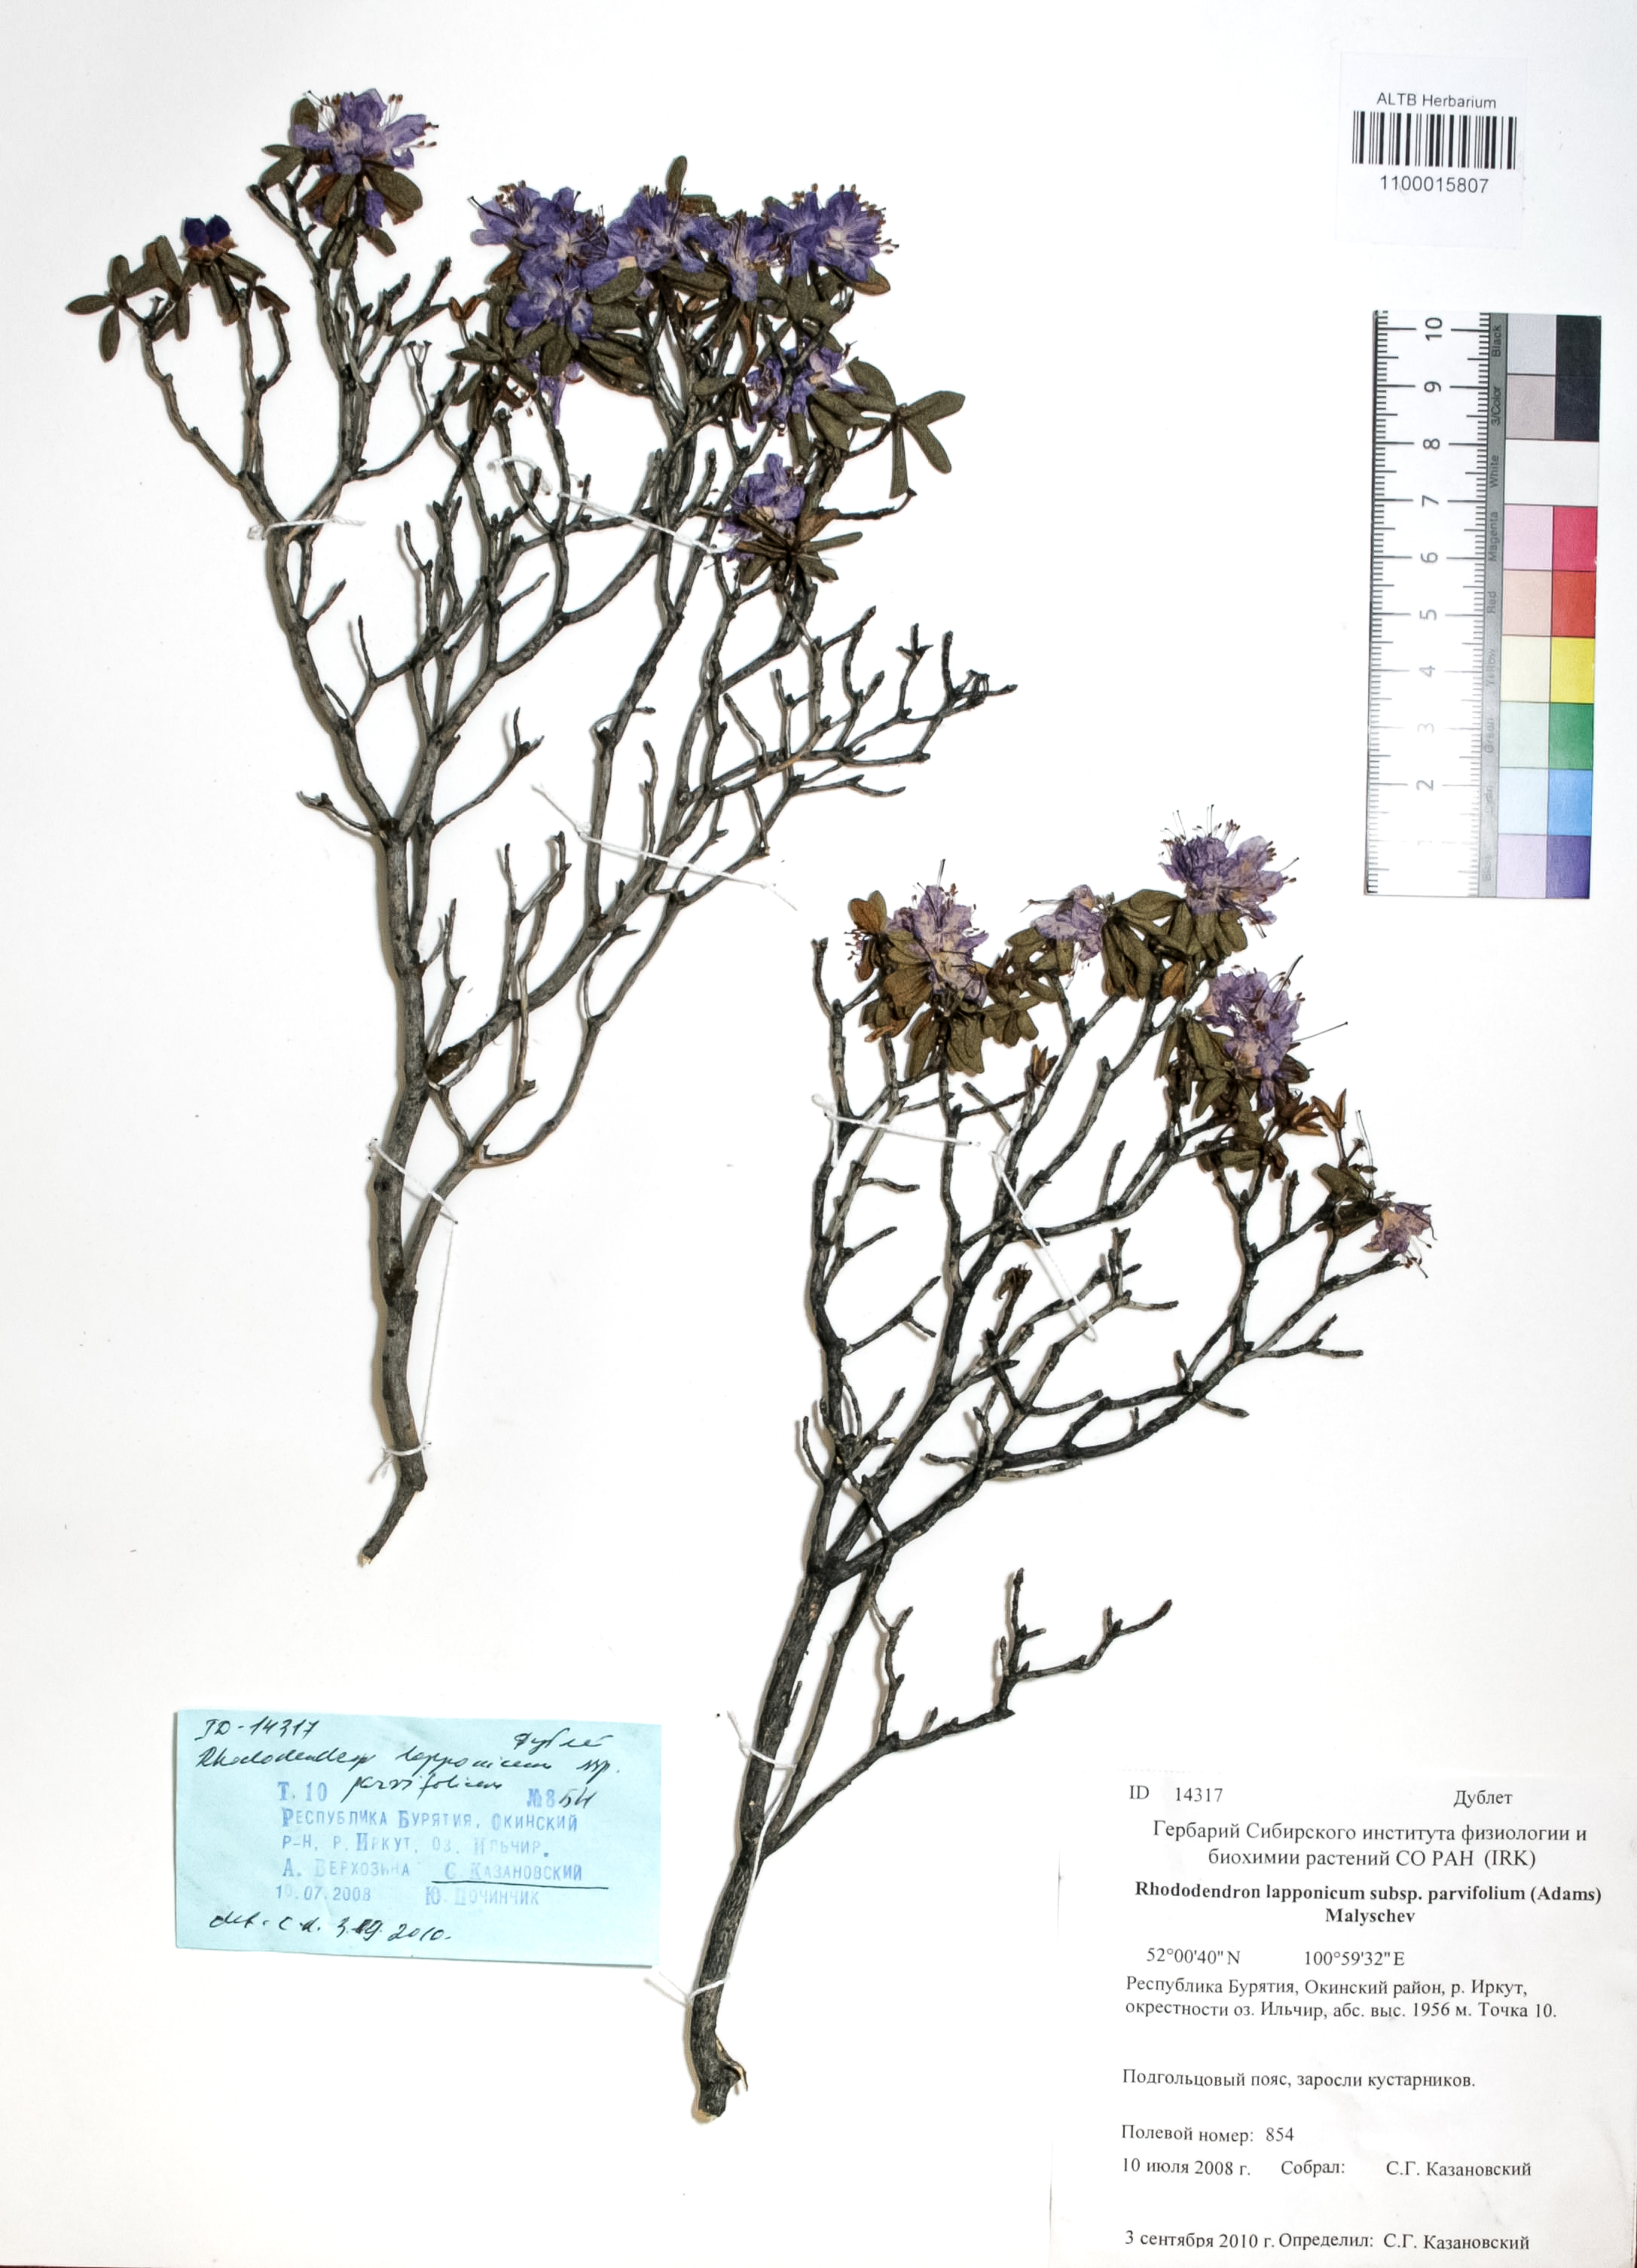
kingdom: Plantae
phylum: Tracheophyta
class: Magnoliopsida
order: Ericales
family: Ericaceae
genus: Rhododendron
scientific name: Rhododendron lapponicum
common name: Lapland rhododendron
